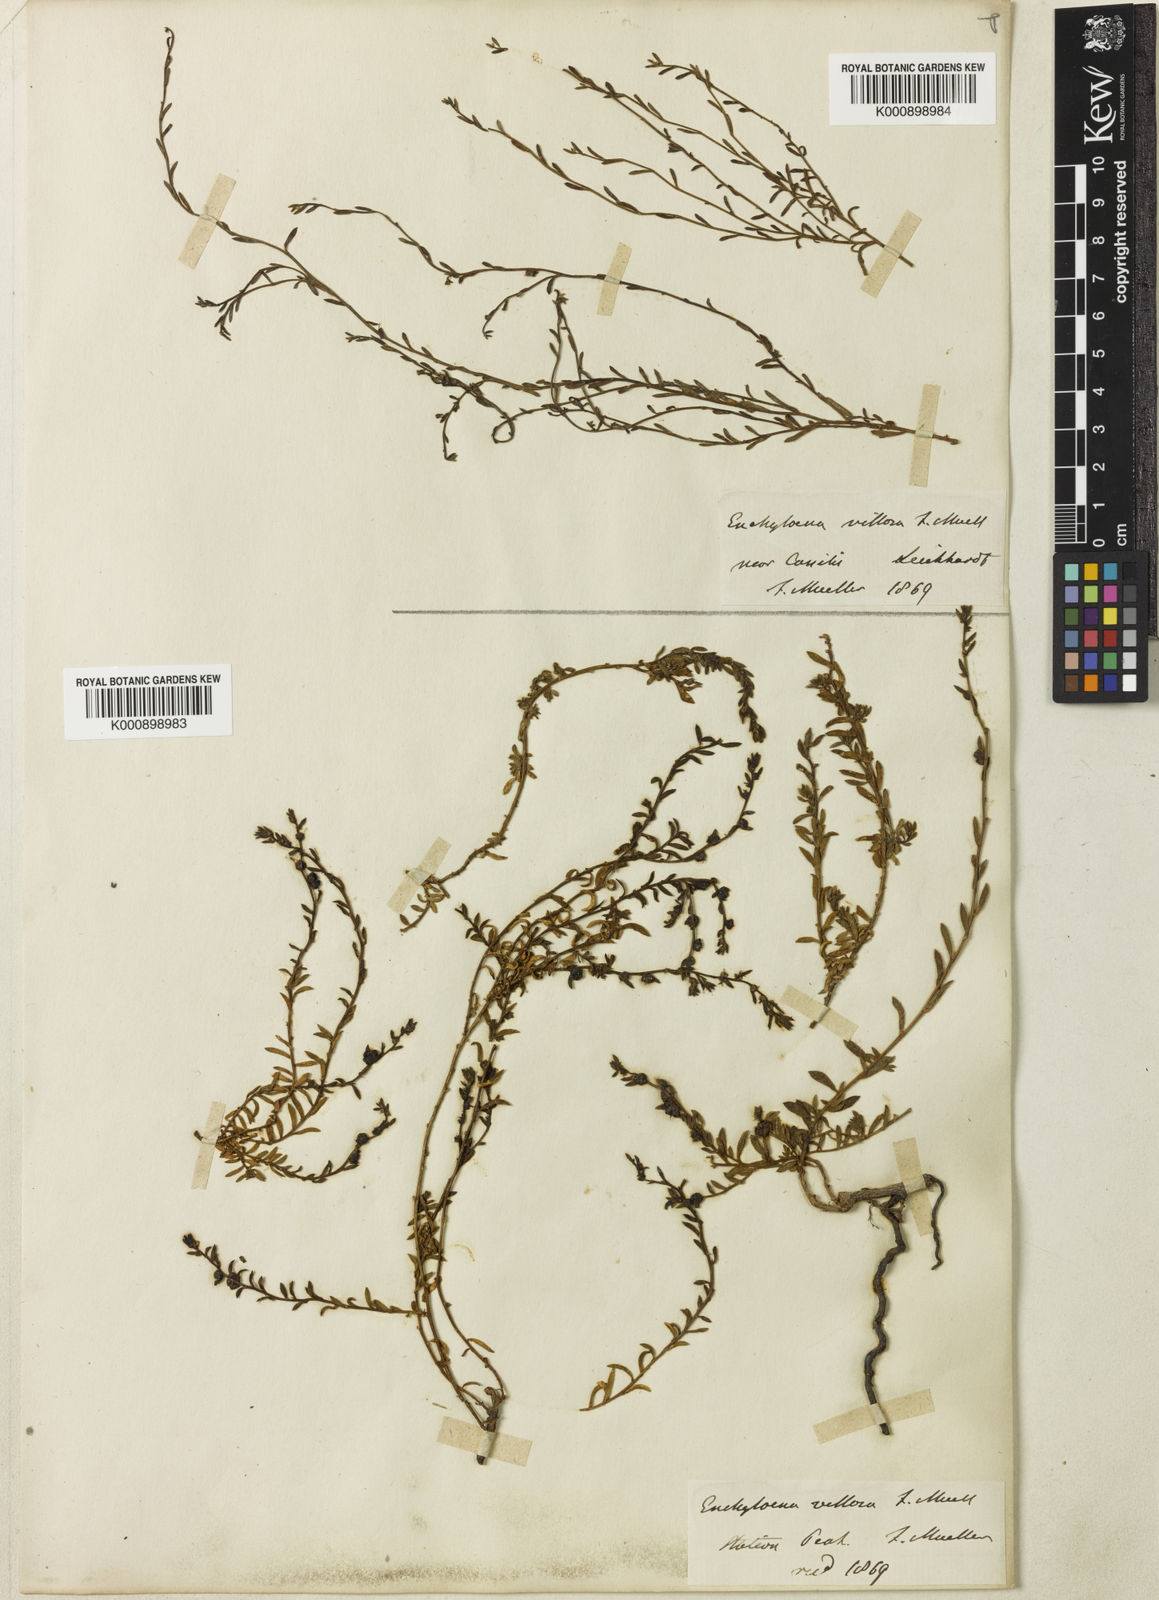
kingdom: Plantae
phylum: Tracheophyta
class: Magnoliopsida
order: Caryophyllales
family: Amaranthaceae
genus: Maireana
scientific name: Maireana enchylaenoides
